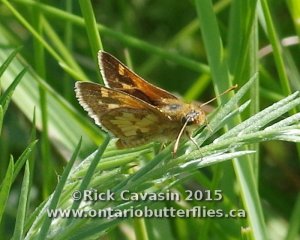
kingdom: Animalia
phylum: Arthropoda
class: Insecta
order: Lepidoptera
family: Hesperiidae
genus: Polites
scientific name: Polites coras
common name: Peck's Skipper
